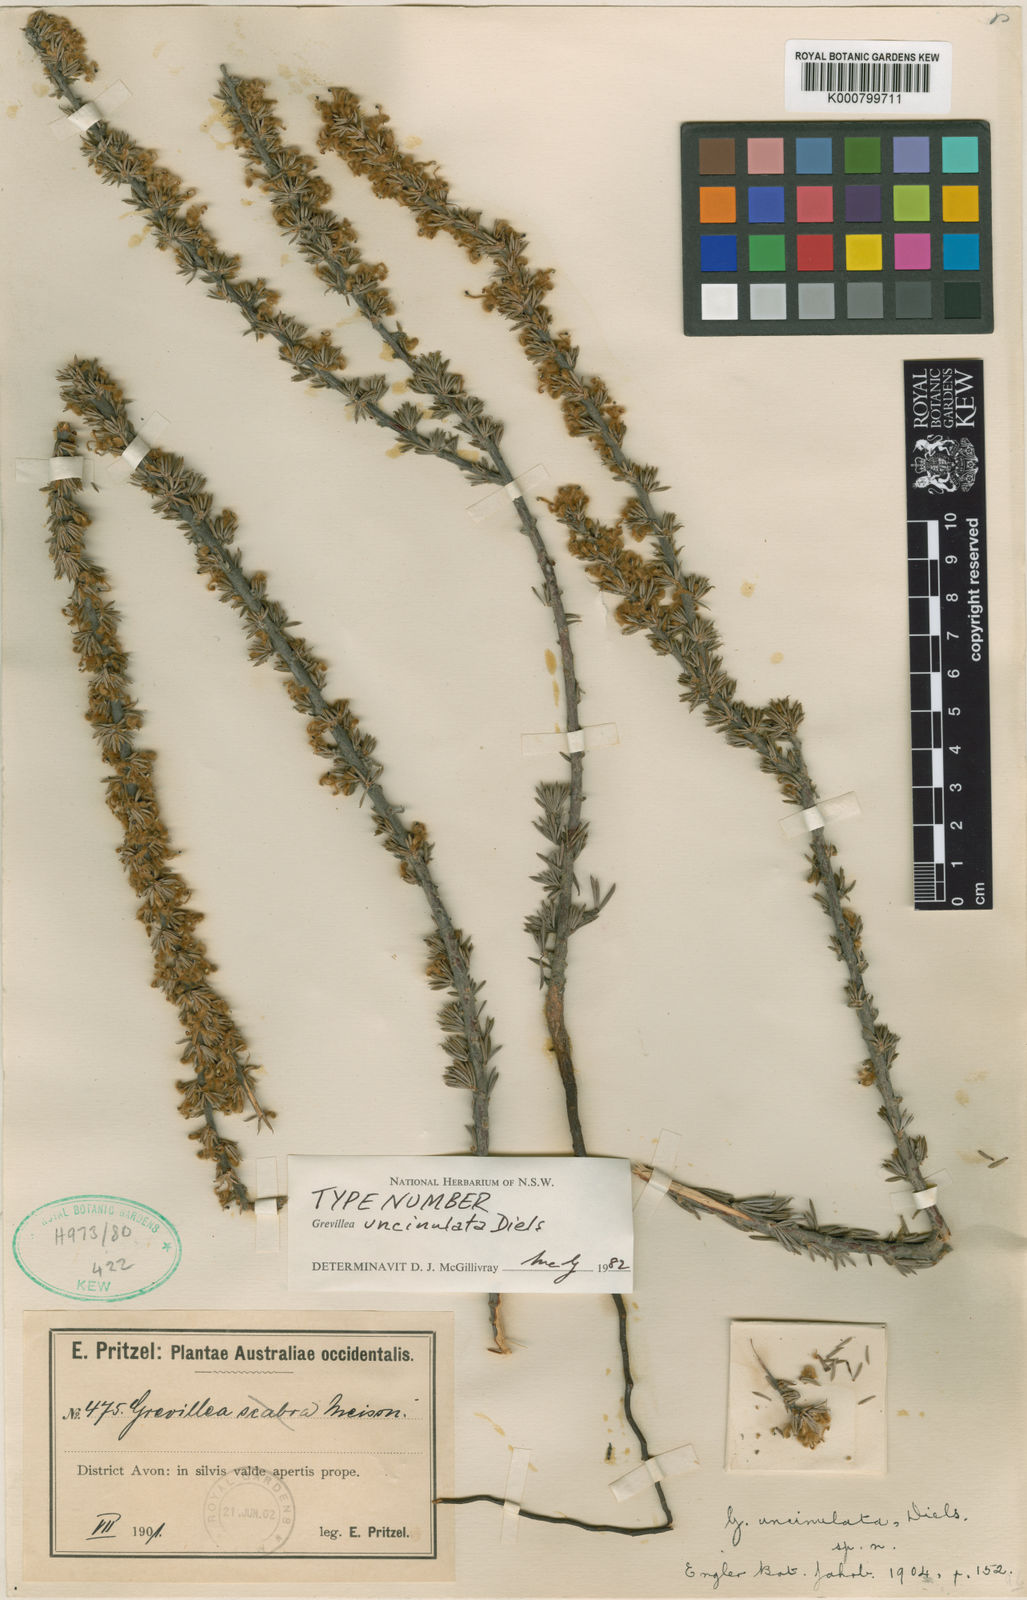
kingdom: Plantae
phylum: Tracheophyta
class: Magnoliopsida
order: Proteales
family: Proteaceae
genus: Grevillea
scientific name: Grevillea uncinulata
